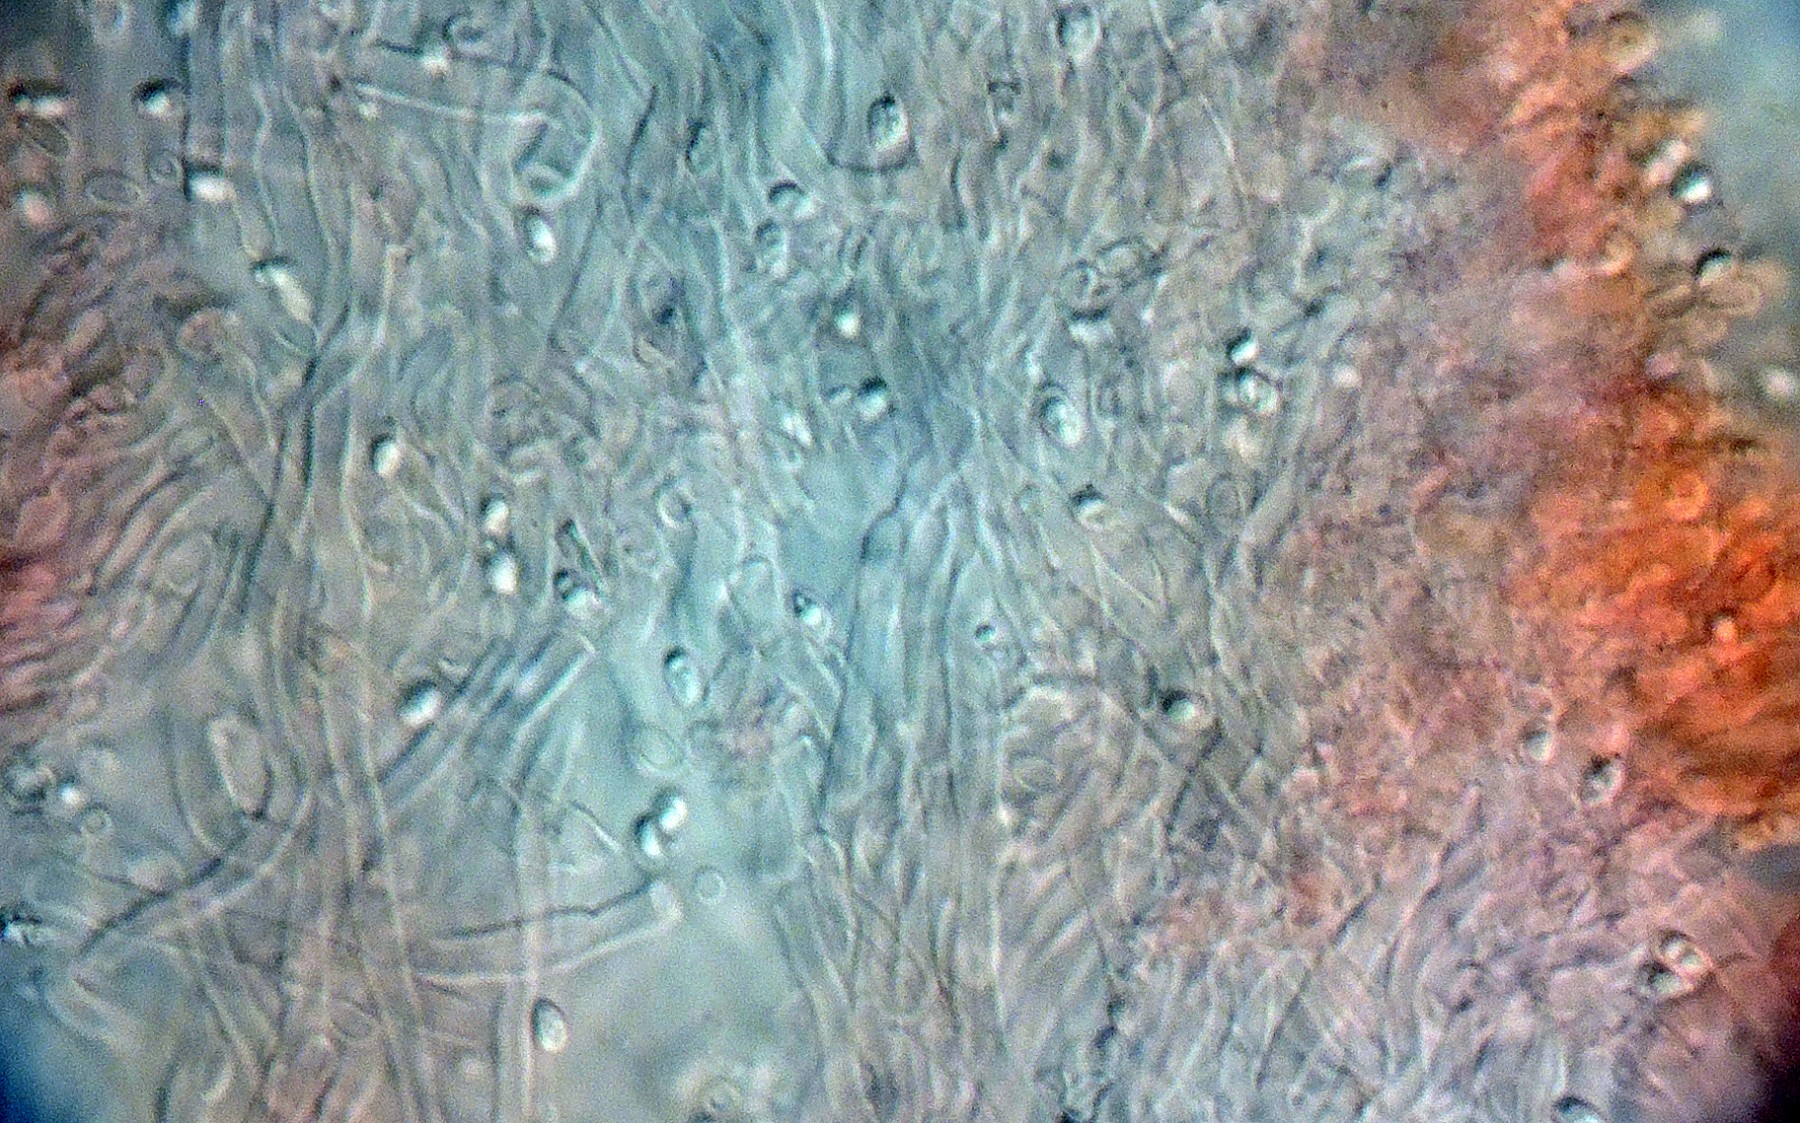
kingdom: Fungi
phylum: Basidiomycota
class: Agaricomycetes
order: Polyporales
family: Dacryobolaceae
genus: Oligoporus
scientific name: Oligoporus wakefieldiae
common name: række-kødporesvamp
